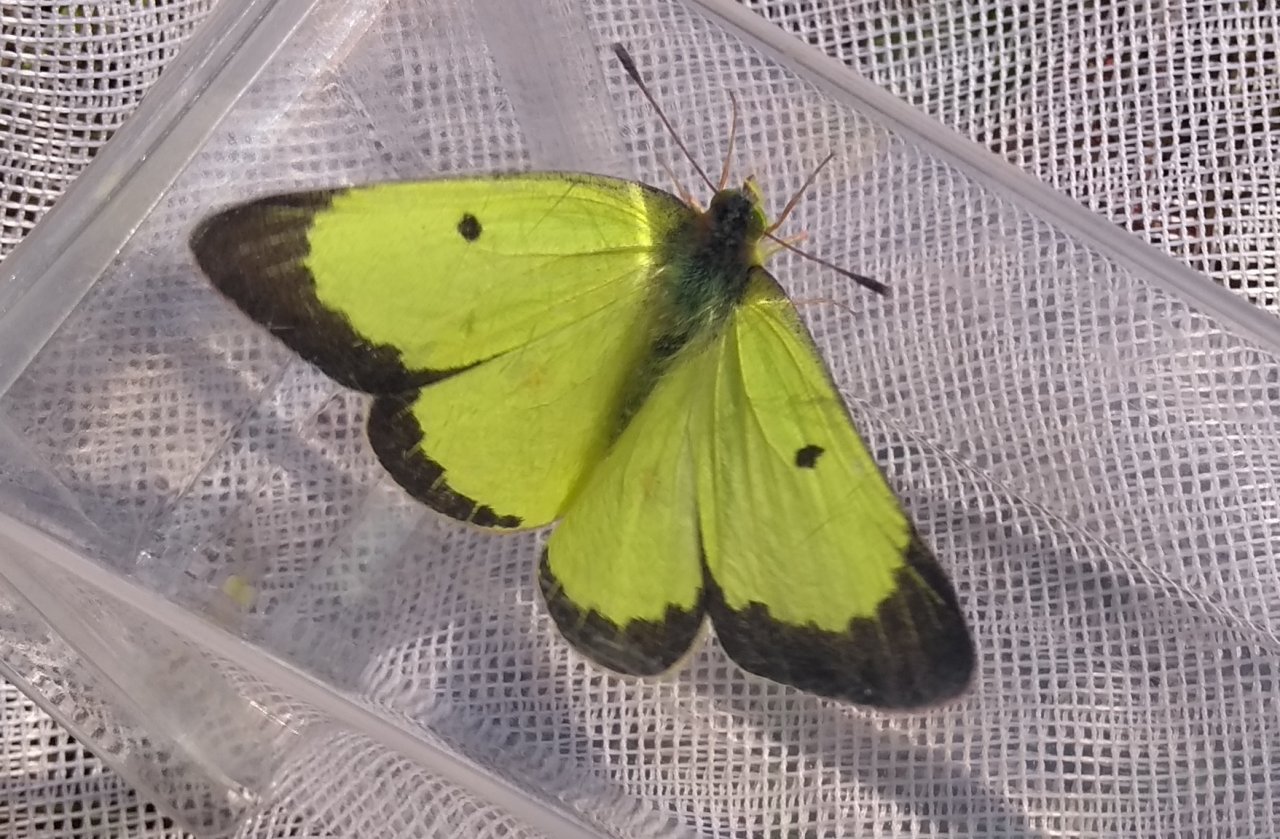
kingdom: Animalia
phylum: Arthropoda
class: Insecta
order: Lepidoptera
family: Pieridae
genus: Colias
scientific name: Colias philodice
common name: Clouded Sulphur
